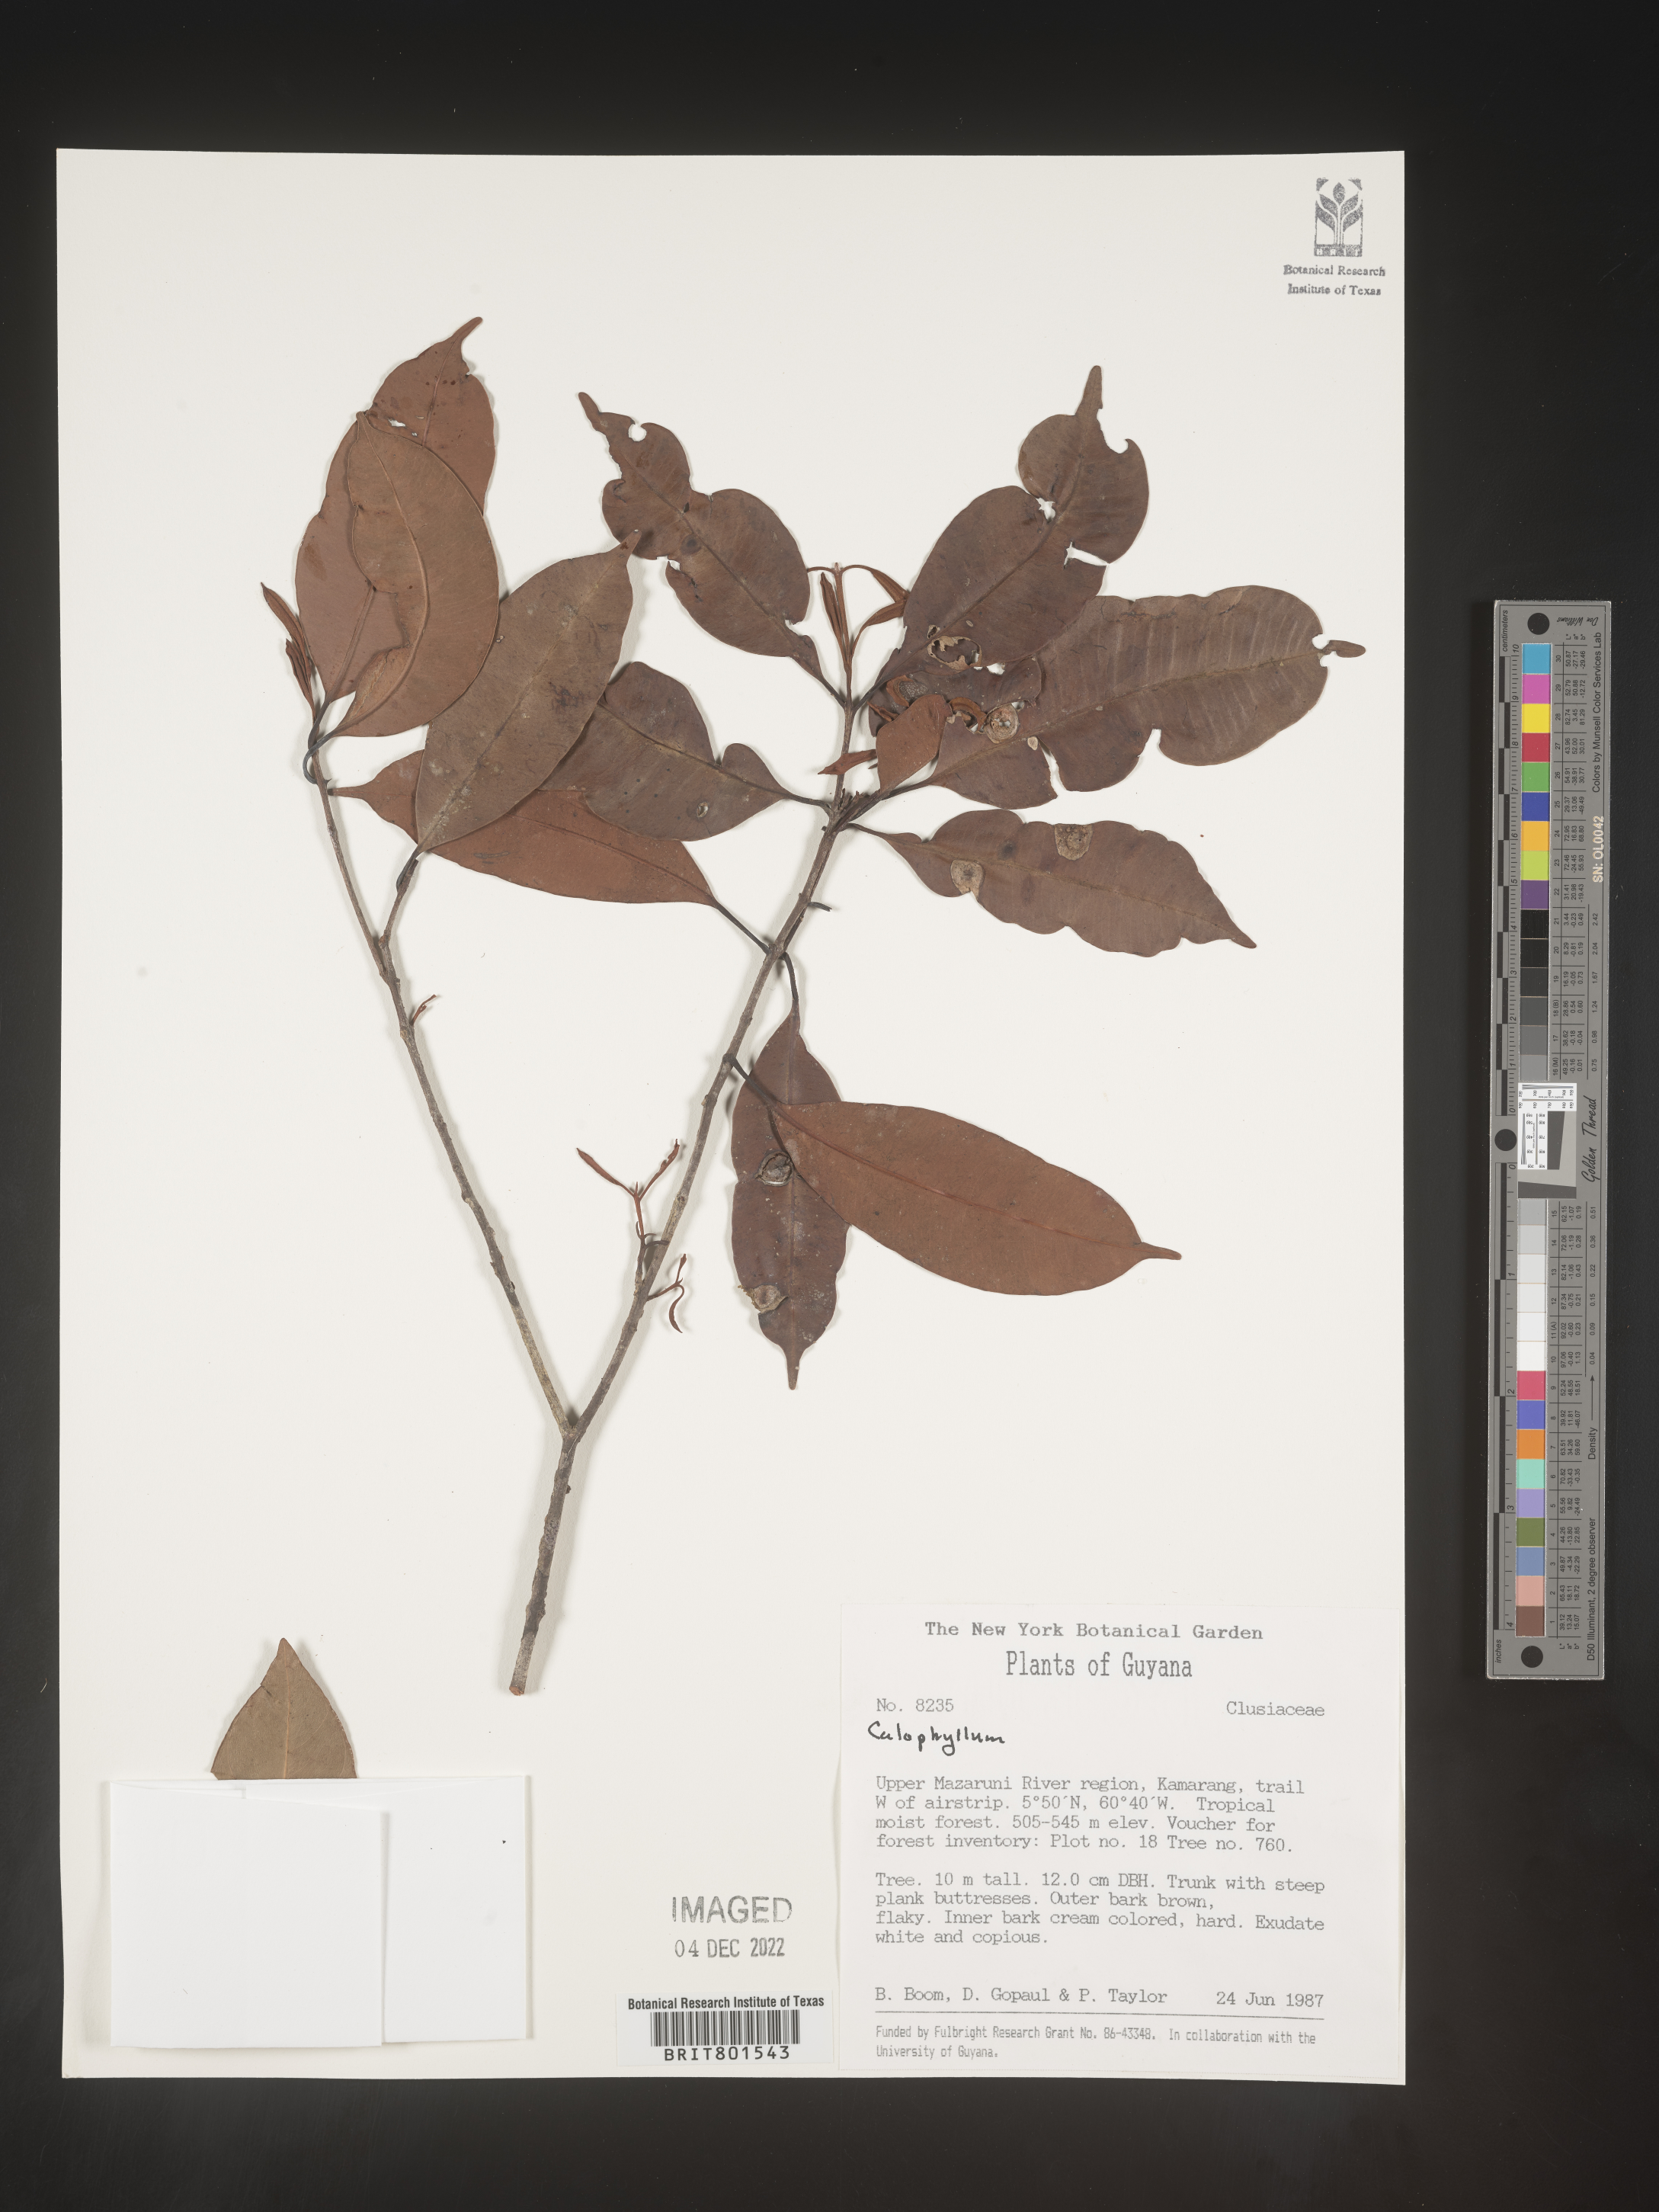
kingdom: Plantae
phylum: Tracheophyta
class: Magnoliopsida
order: Malpighiales
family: Calophyllaceae
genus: Calophyllum
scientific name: Calophyllum
